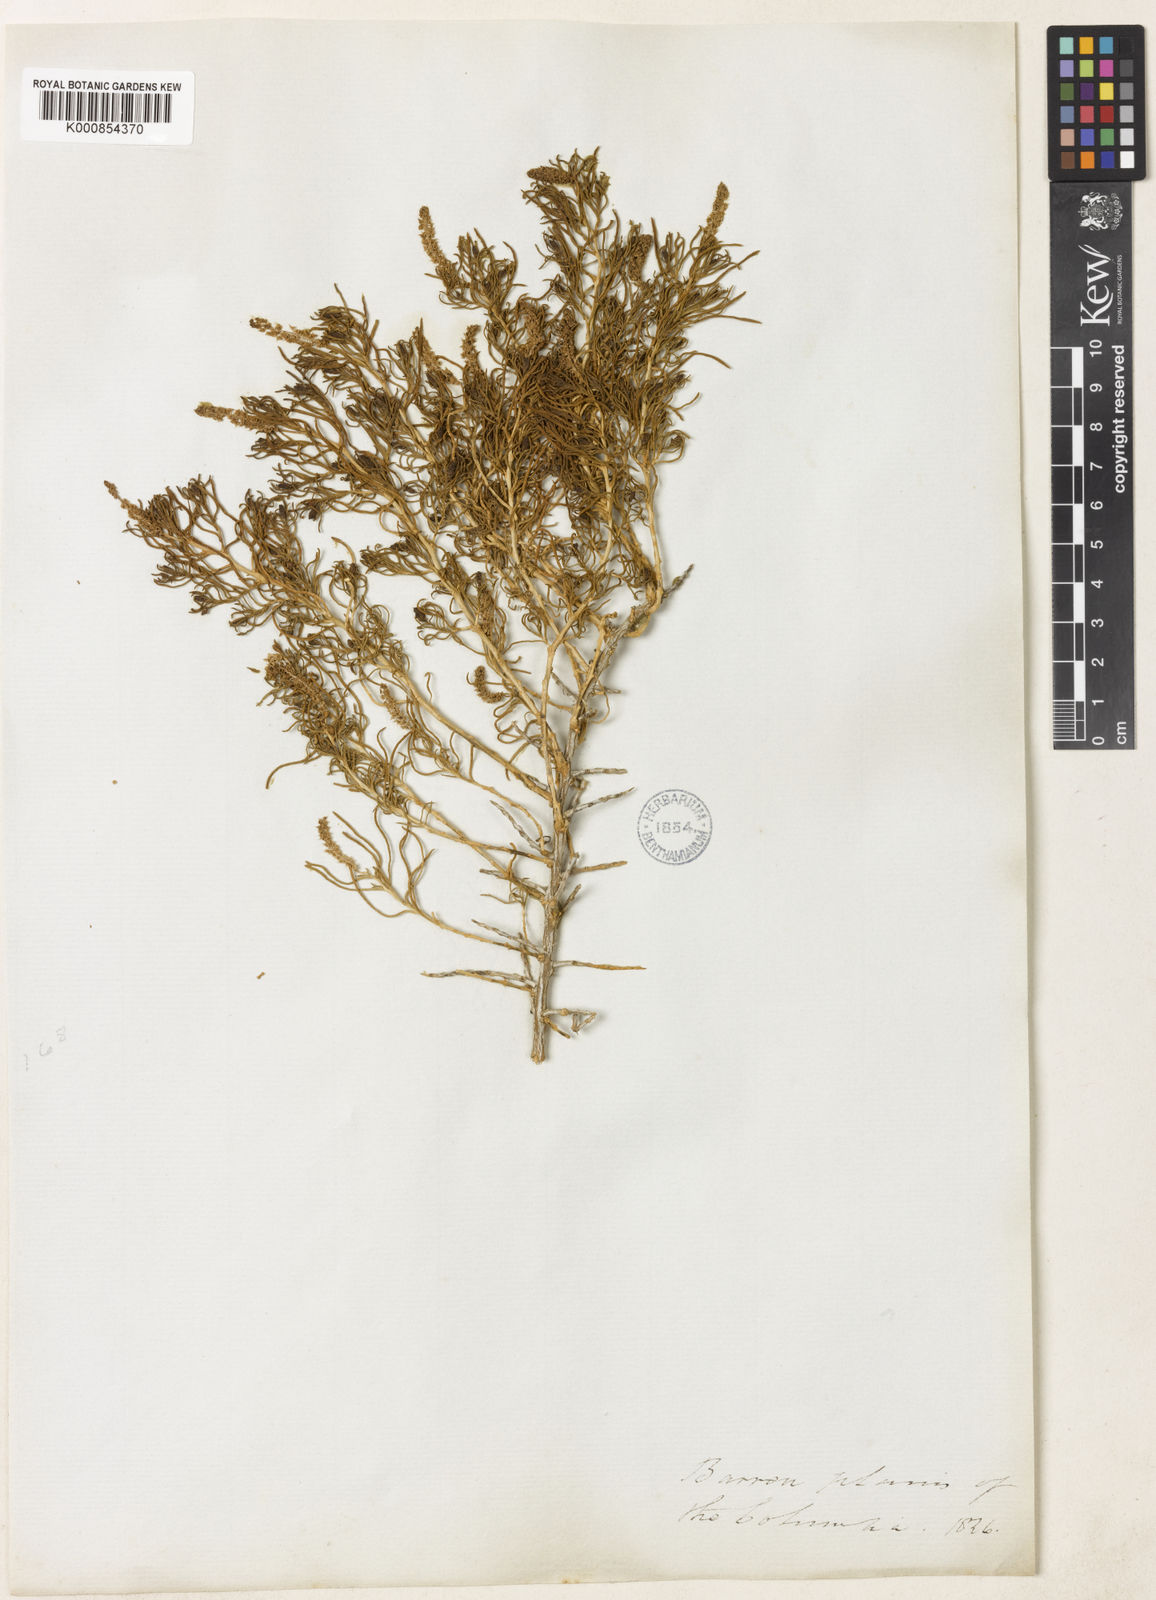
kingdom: Plantae
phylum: Tracheophyta
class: Magnoliopsida
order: Caryophyllales
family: Sarcobataceae
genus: Sarcobatus
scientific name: Sarcobatus vermiculatus
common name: Greasewood
